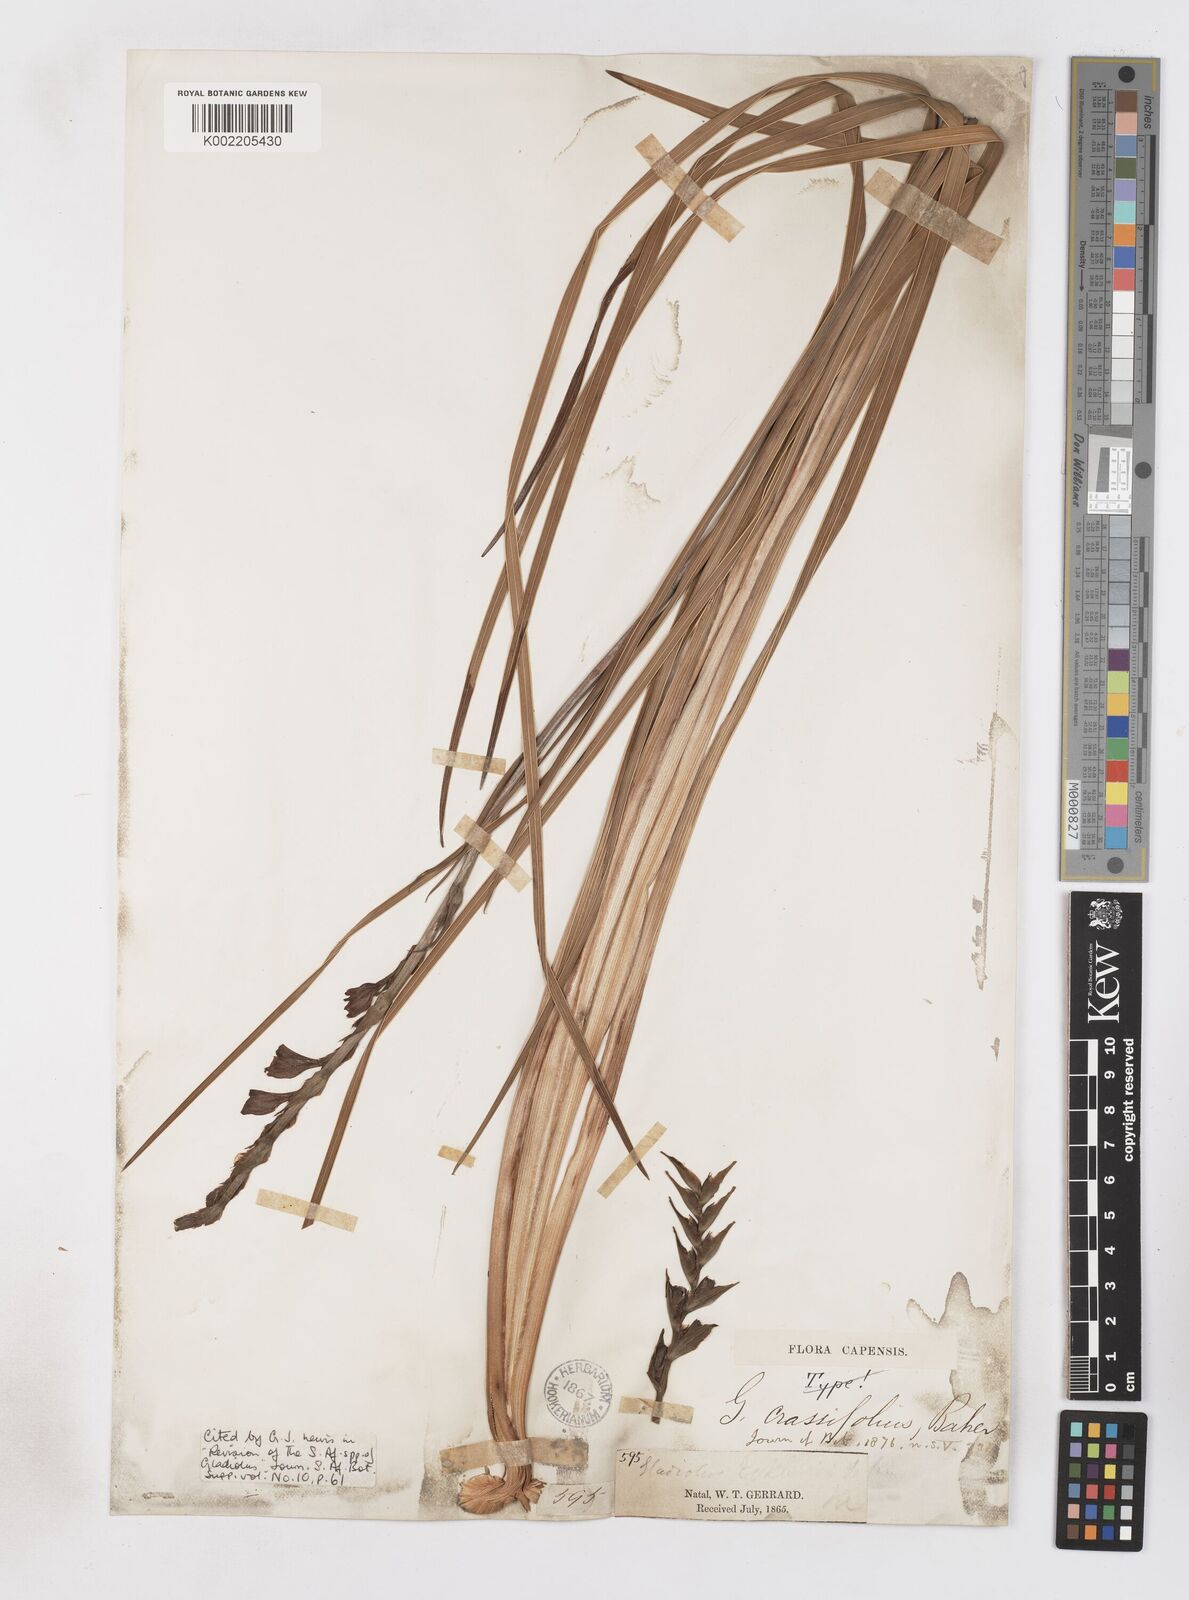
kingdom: Plantae
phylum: Tracheophyta
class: Liliopsida
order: Asparagales
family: Iridaceae
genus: Gladiolus
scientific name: Gladiolus densiflorus
